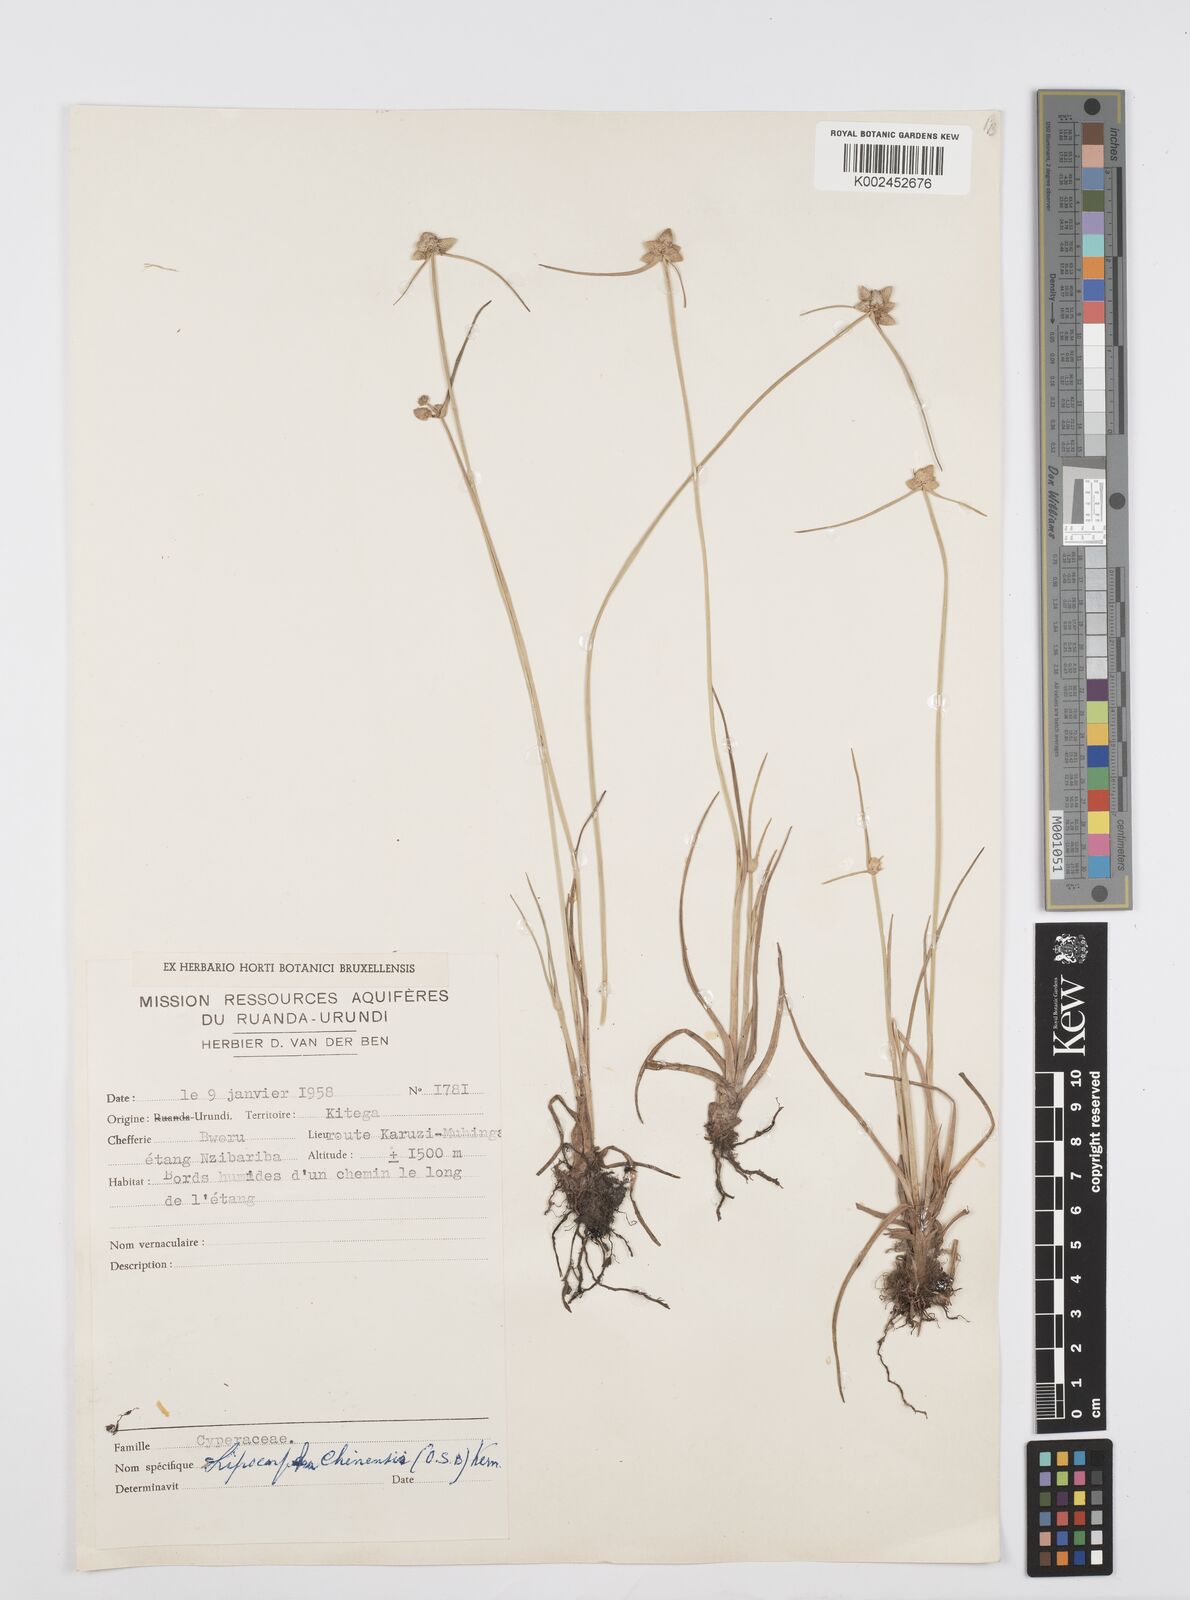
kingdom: Plantae
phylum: Tracheophyta
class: Liliopsida
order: Poales
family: Cyperaceae
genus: Cyperus
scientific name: Cyperus albescens
